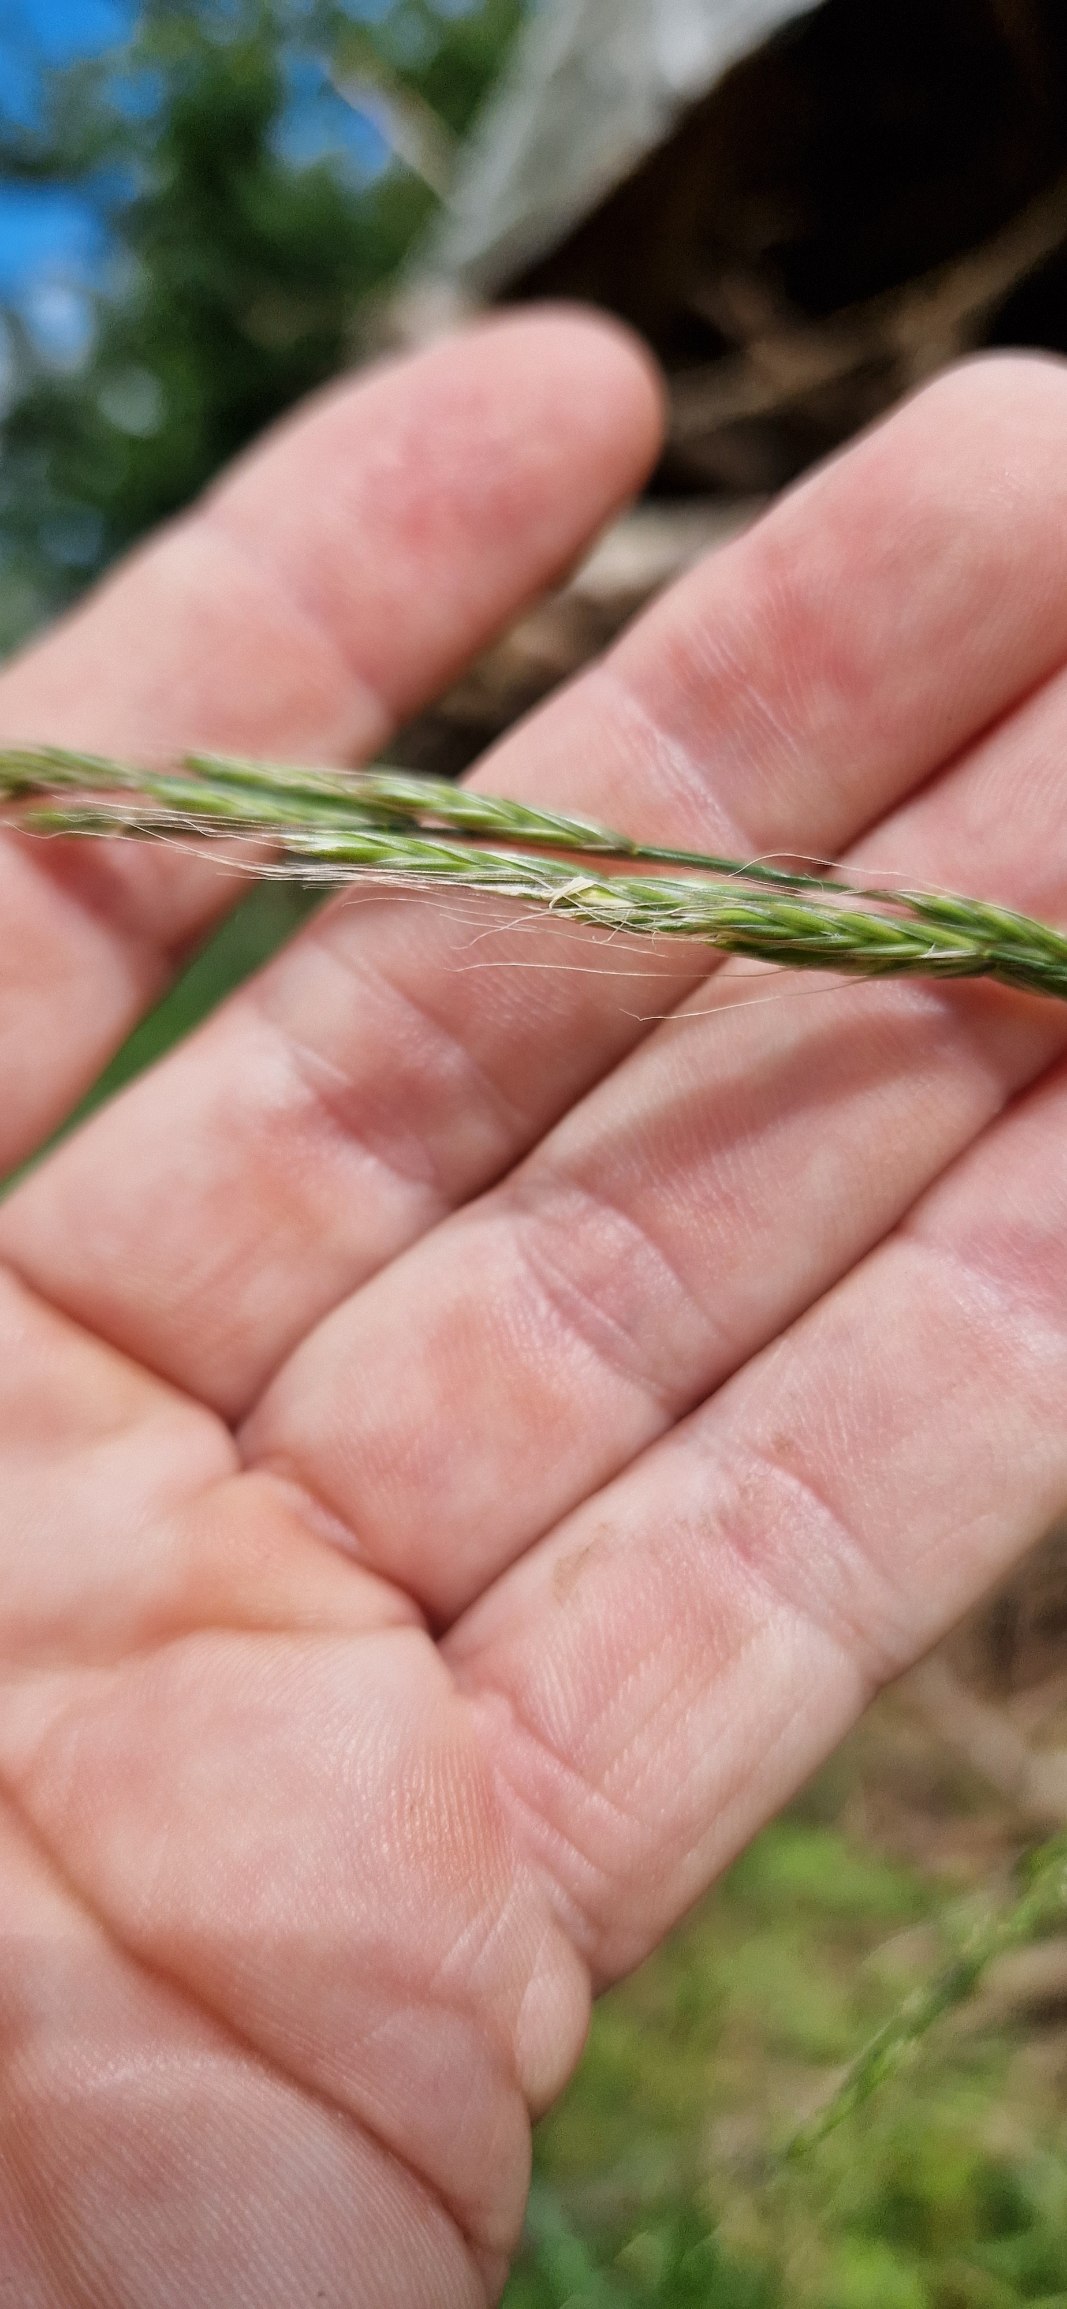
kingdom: Plantae
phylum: Tracheophyta
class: Liliopsida
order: Poales
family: Poaceae
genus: Lolium
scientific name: Lolium giganteum
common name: Kæmpe-svingel
